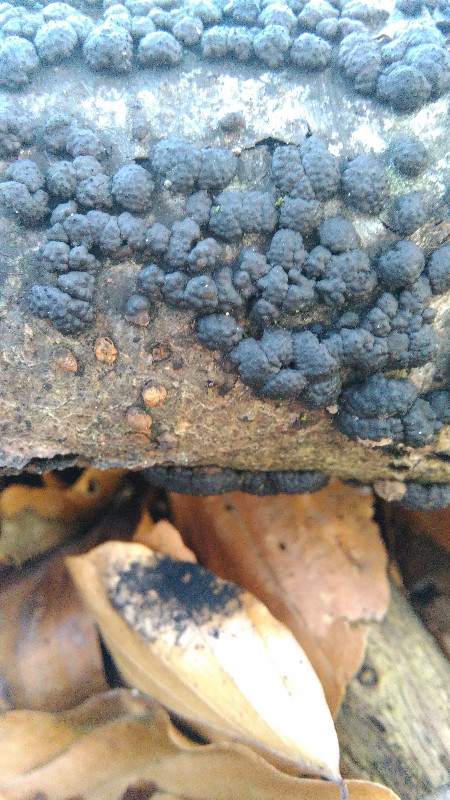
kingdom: Fungi
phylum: Ascomycota
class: Sordariomycetes
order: Xylariales
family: Hypoxylaceae
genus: Jackrogersella
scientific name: Jackrogersella cohaerens
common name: sammenflydende kulbær
